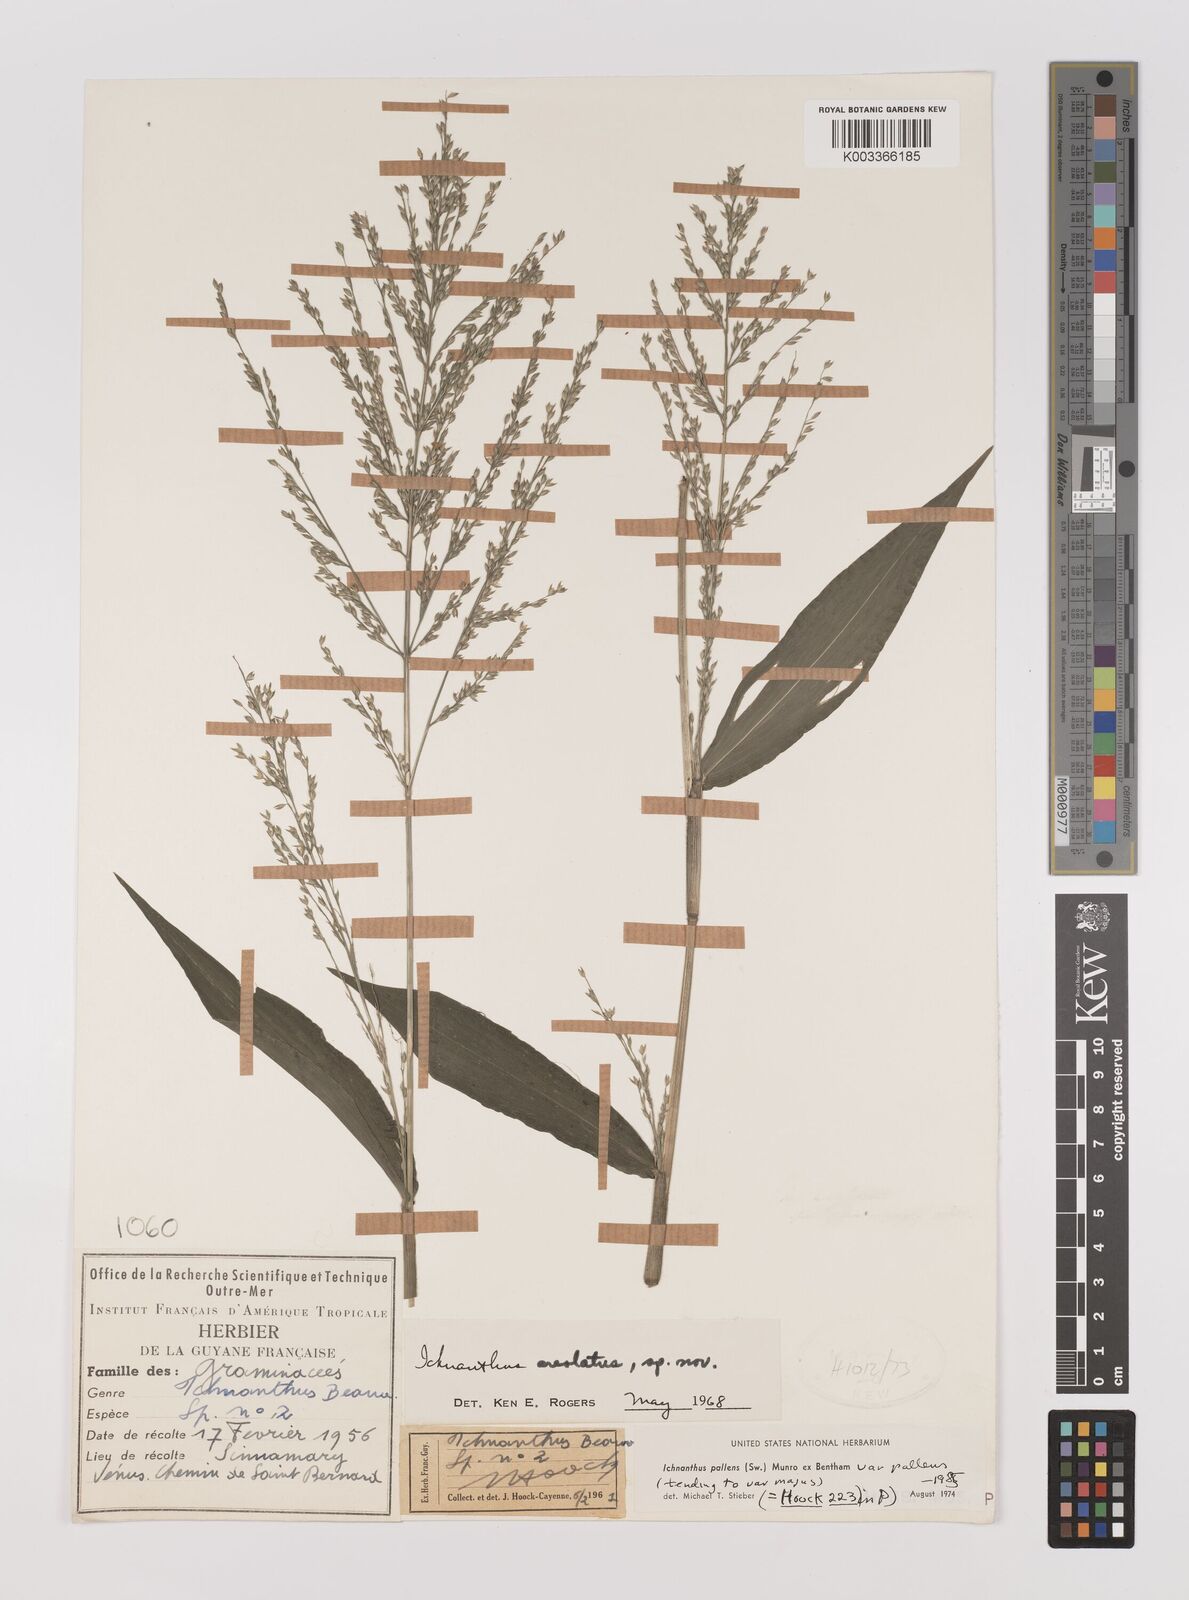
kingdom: Plantae
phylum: Tracheophyta
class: Liliopsida
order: Poales
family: Poaceae
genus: Ichnanthus
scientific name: Ichnanthus pallens
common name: Water grass
